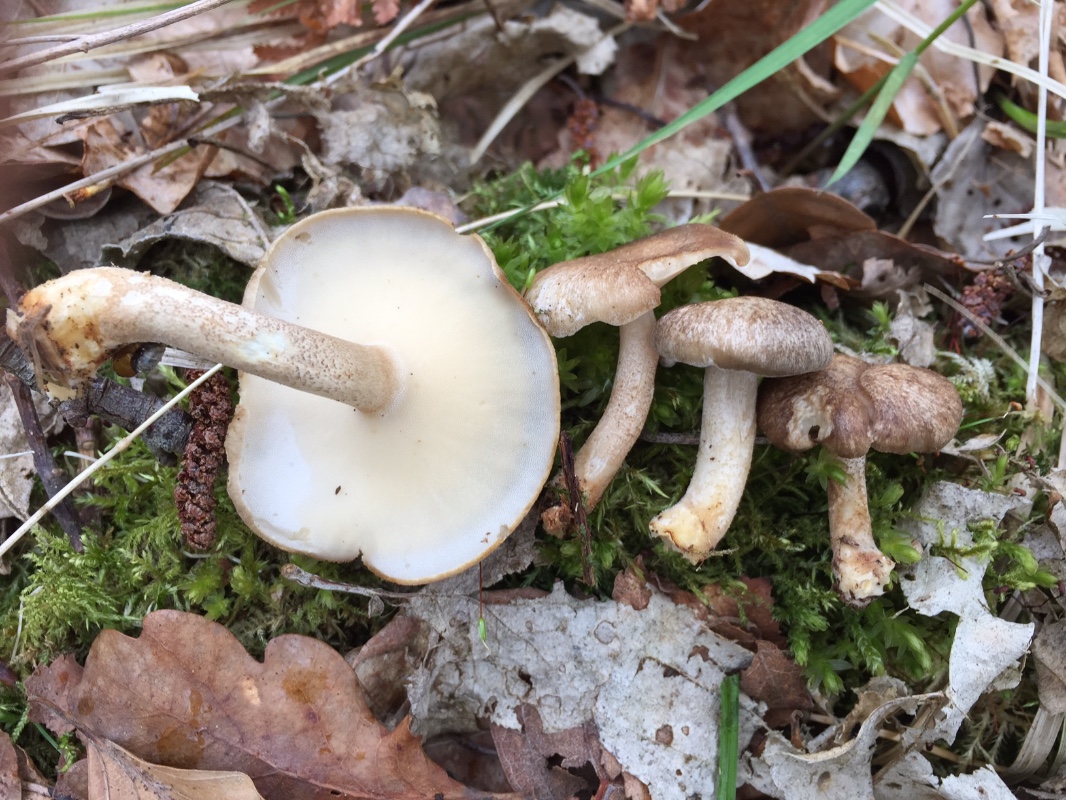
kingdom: Fungi
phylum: Basidiomycota
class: Agaricomycetes
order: Polyporales
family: Polyporaceae
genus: Lentinus
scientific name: Lentinus substrictus
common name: forårs-stilkporesvamp
